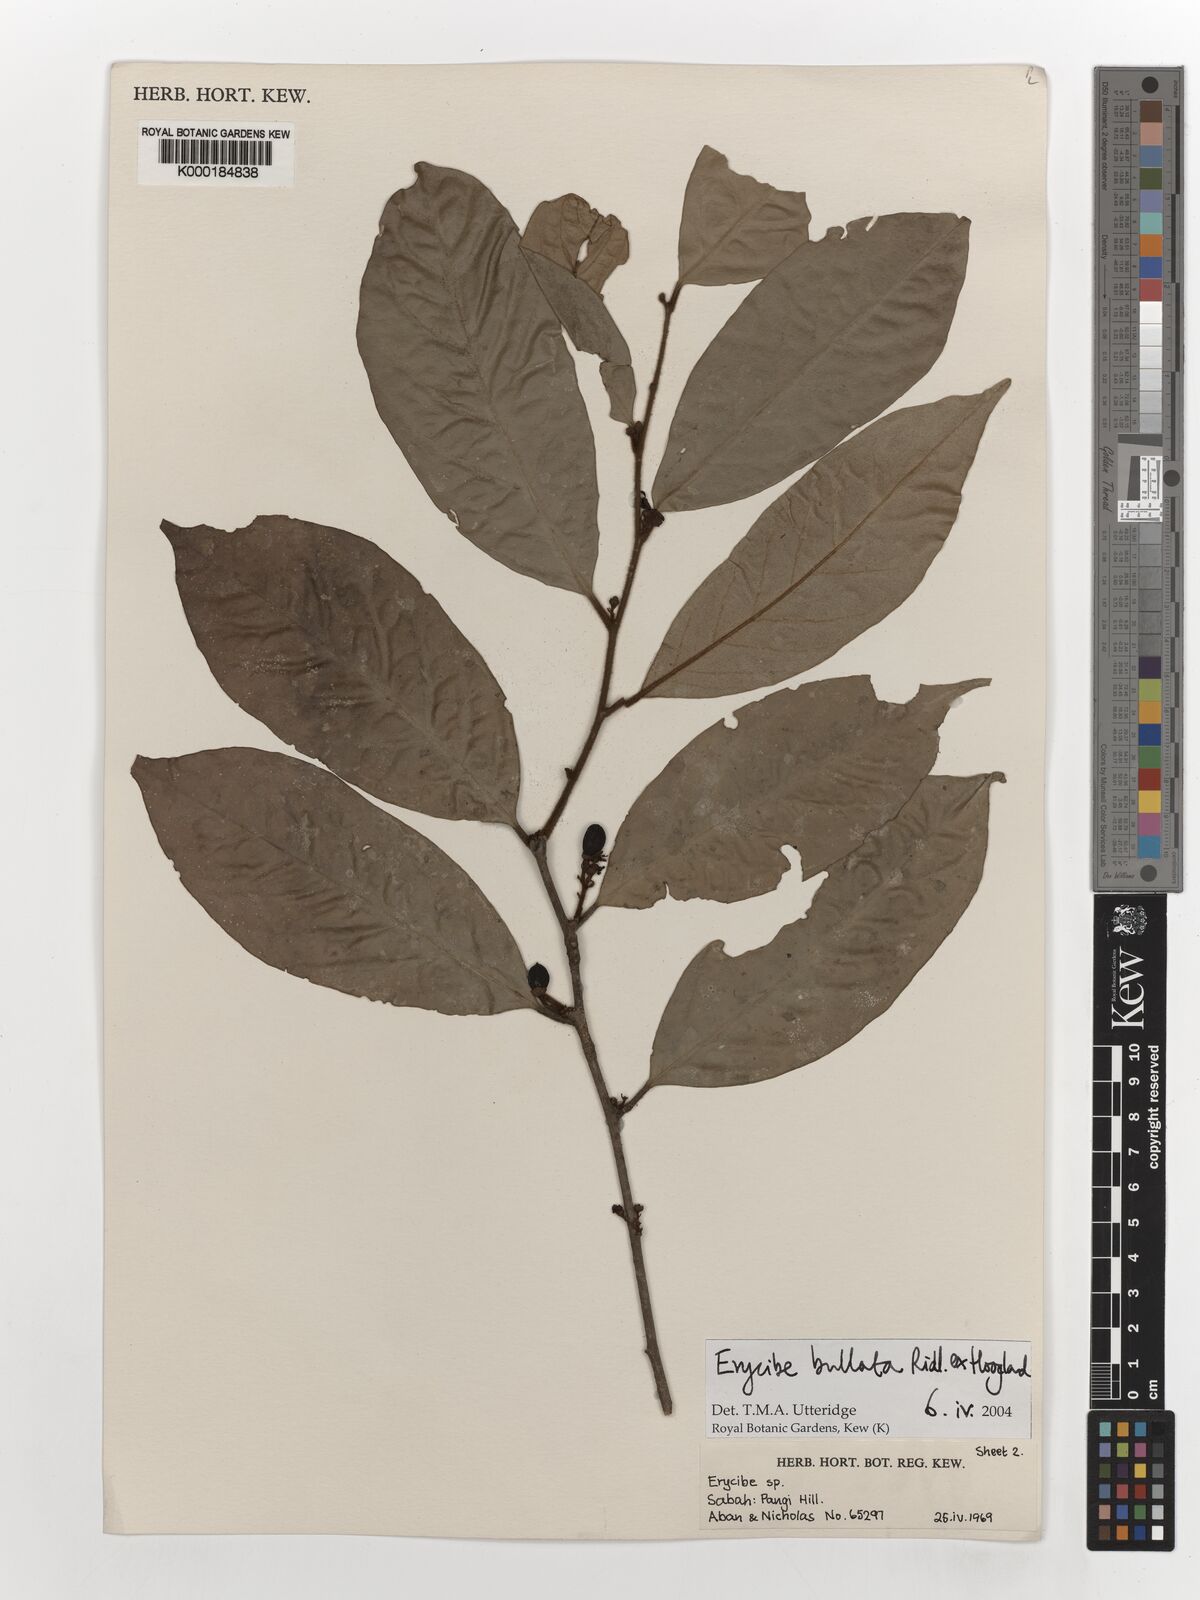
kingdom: Plantae
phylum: Tracheophyta
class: Magnoliopsida
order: Solanales
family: Convolvulaceae
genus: Erycibe
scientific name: Erycibe bullata
